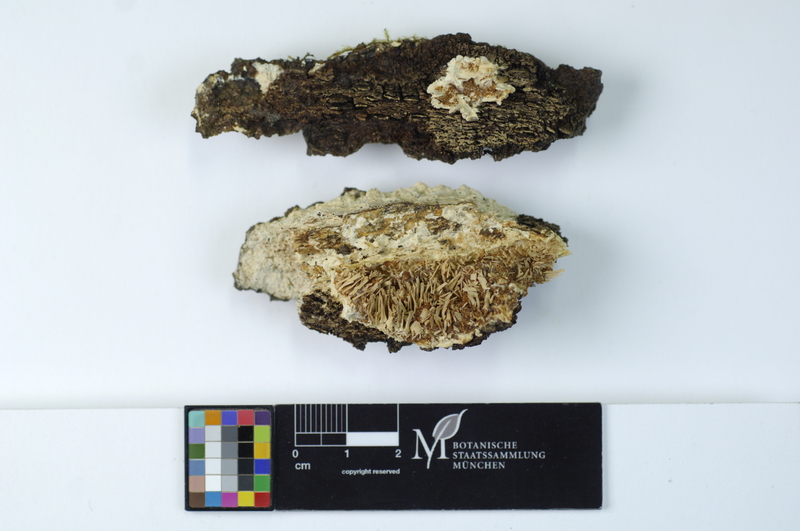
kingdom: Fungi
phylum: Basidiomycota
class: Agaricomycetes
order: Polyporales
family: Meruliaceae
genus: Irpiciporus
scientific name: Irpiciporus pachyodon
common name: Marshmallow polypore
